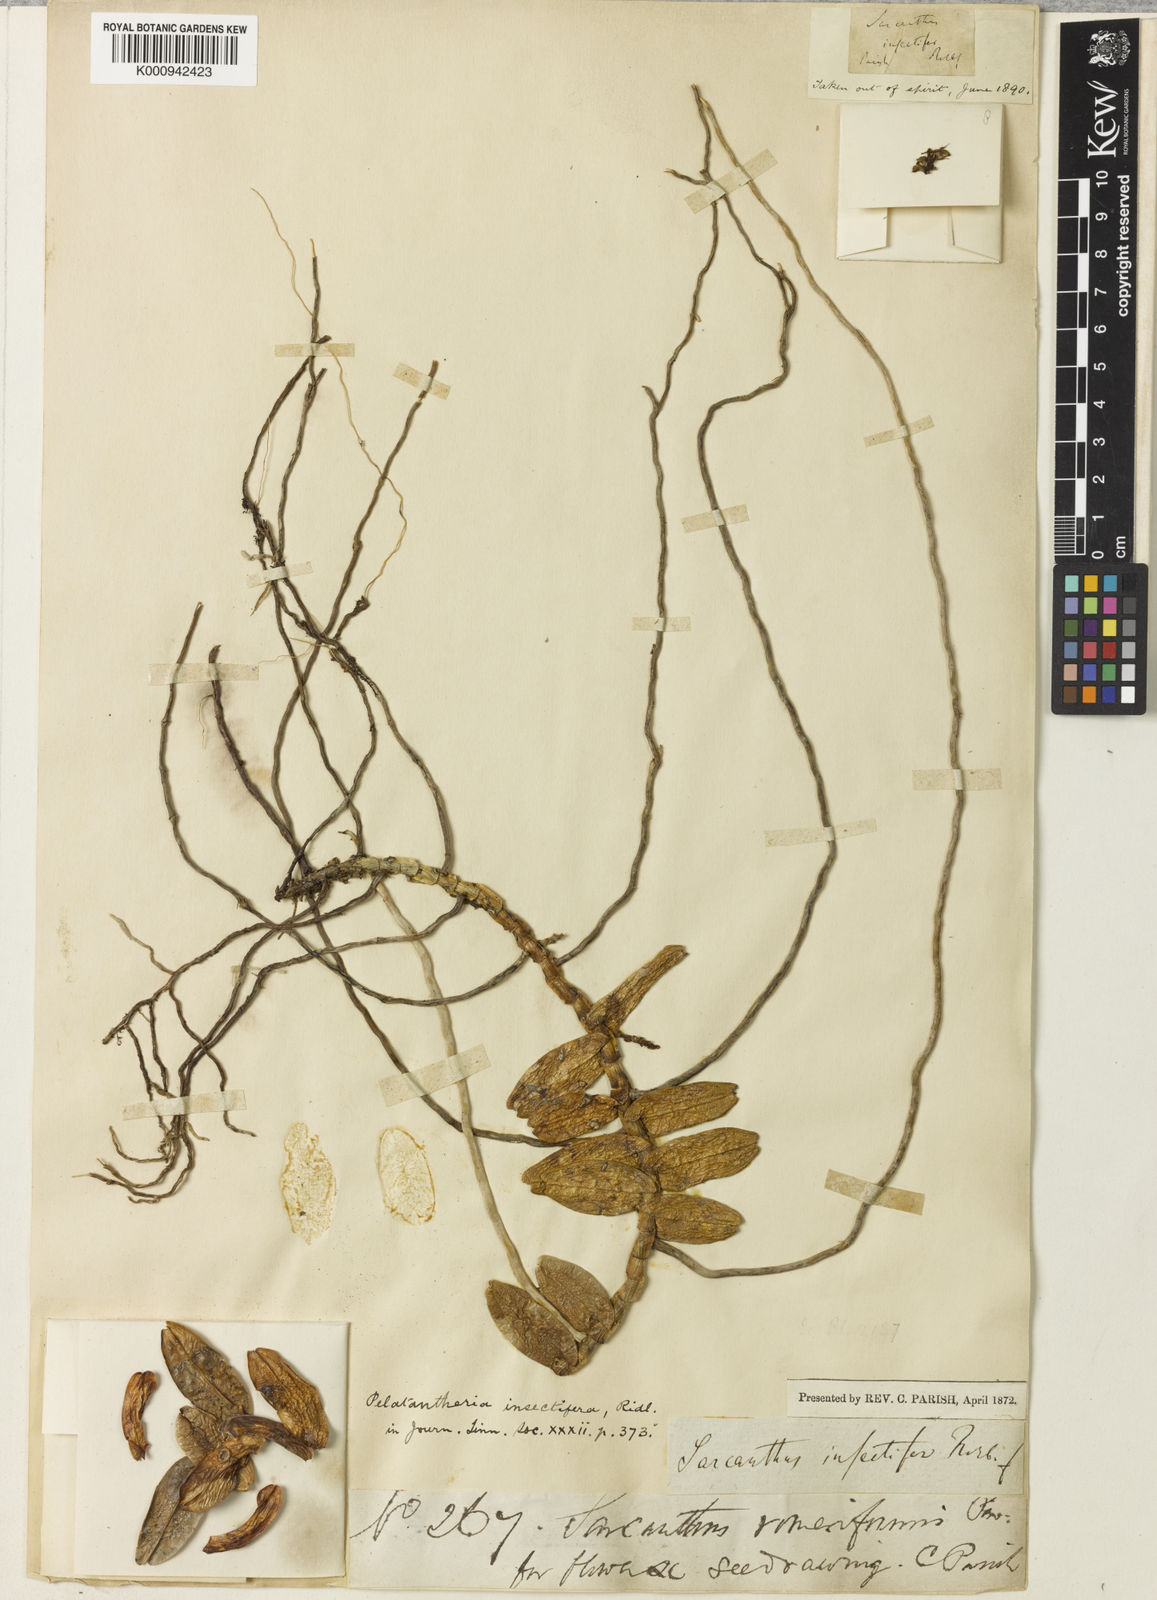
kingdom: Plantae
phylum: Tracheophyta
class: Liliopsida
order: Asparagales
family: Orchidaceae
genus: Pelatantheria
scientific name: Pelatantheria insectifera
